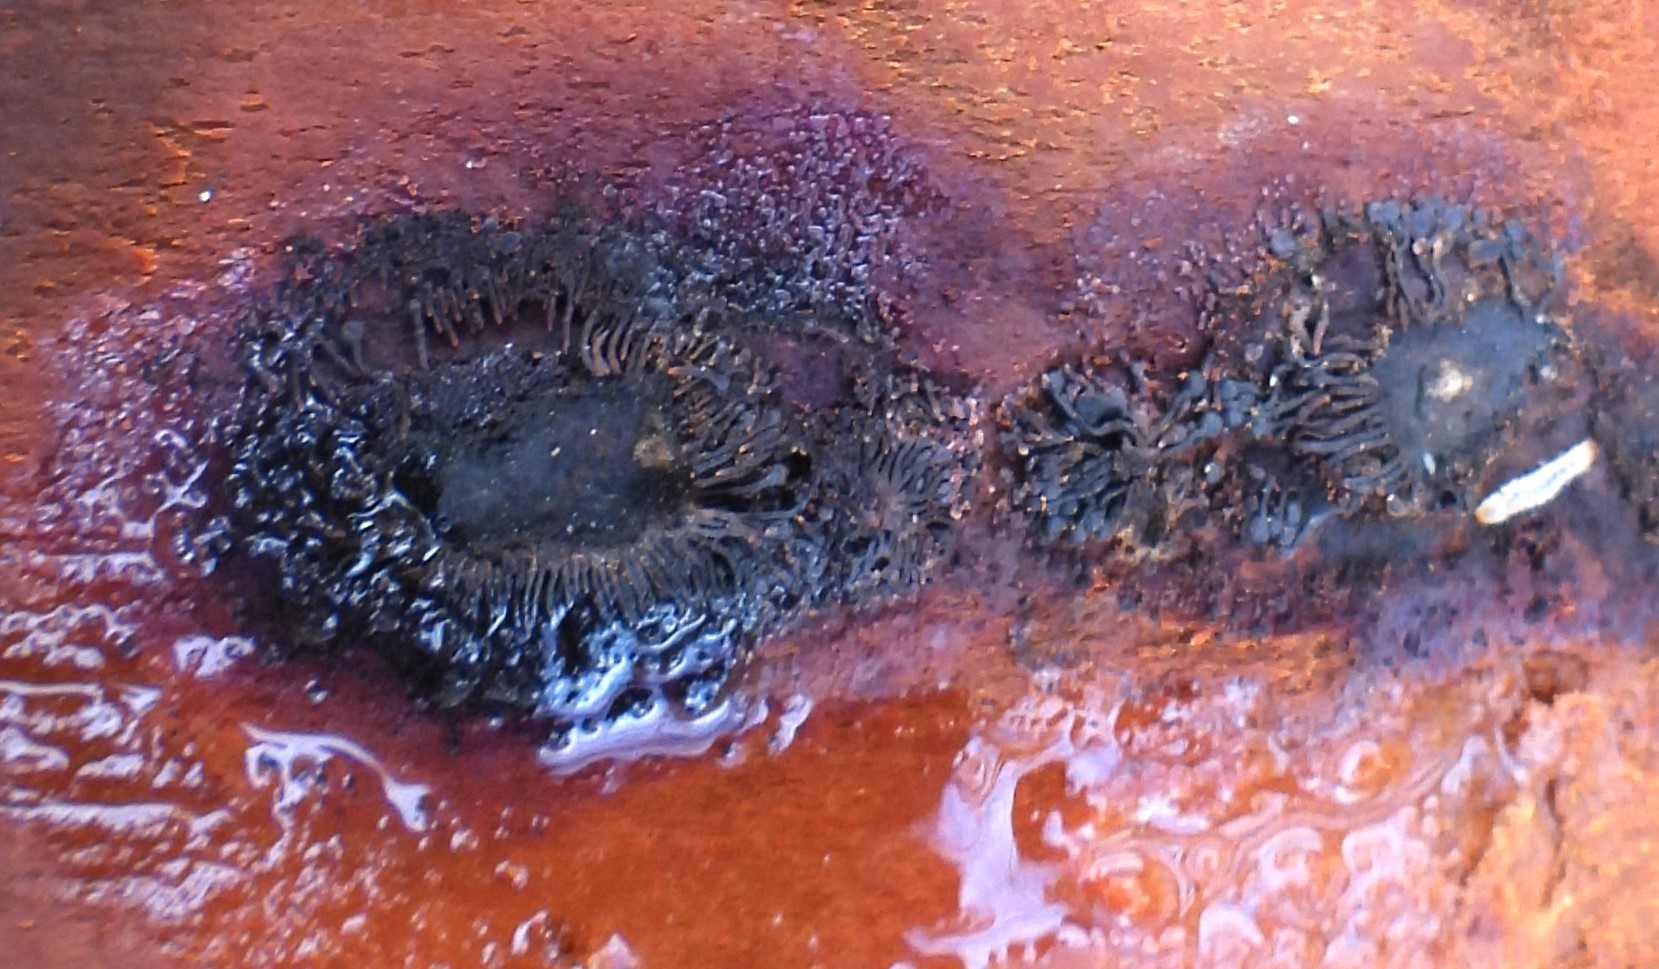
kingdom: Fungi
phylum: Ascomycota
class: Sordariomycetes
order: Calosphaeriales
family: Calosphaeriaceae
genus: Calosphaeria
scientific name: Calosphaeria pulchella
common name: smuk slyngkerne
